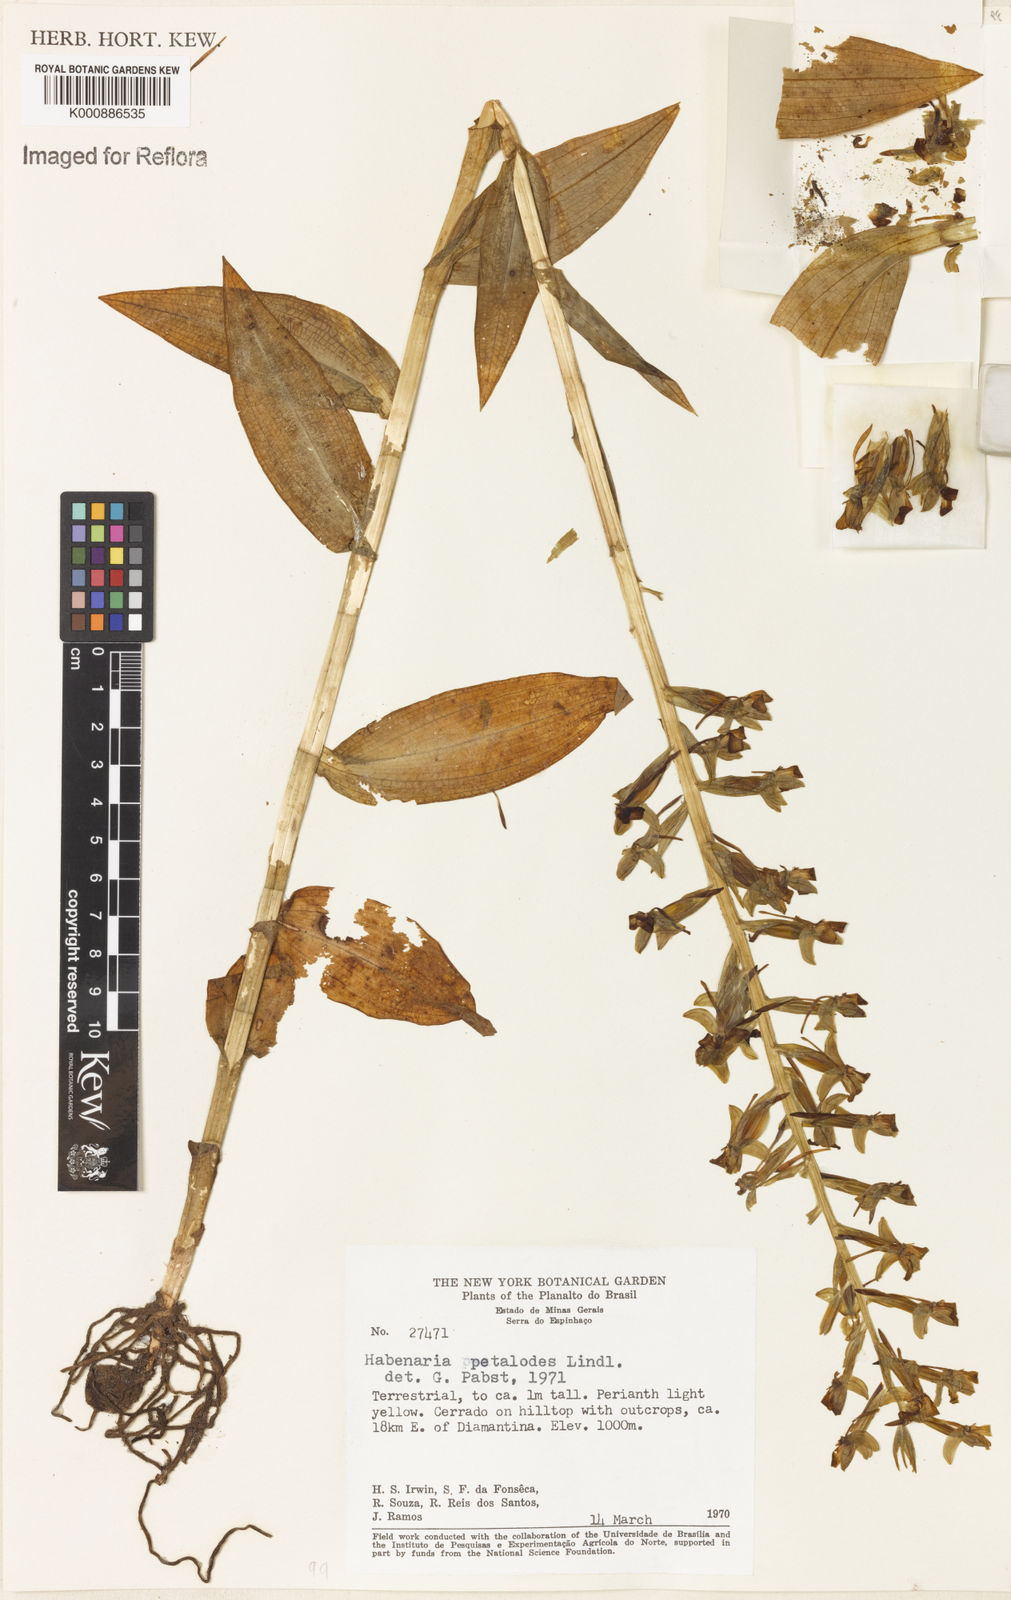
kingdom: Plantae
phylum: Tracheophyta
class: Liliopsida
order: Asparagales
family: Orchidaceae
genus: Habenaria
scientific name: Habenaria petalodes
